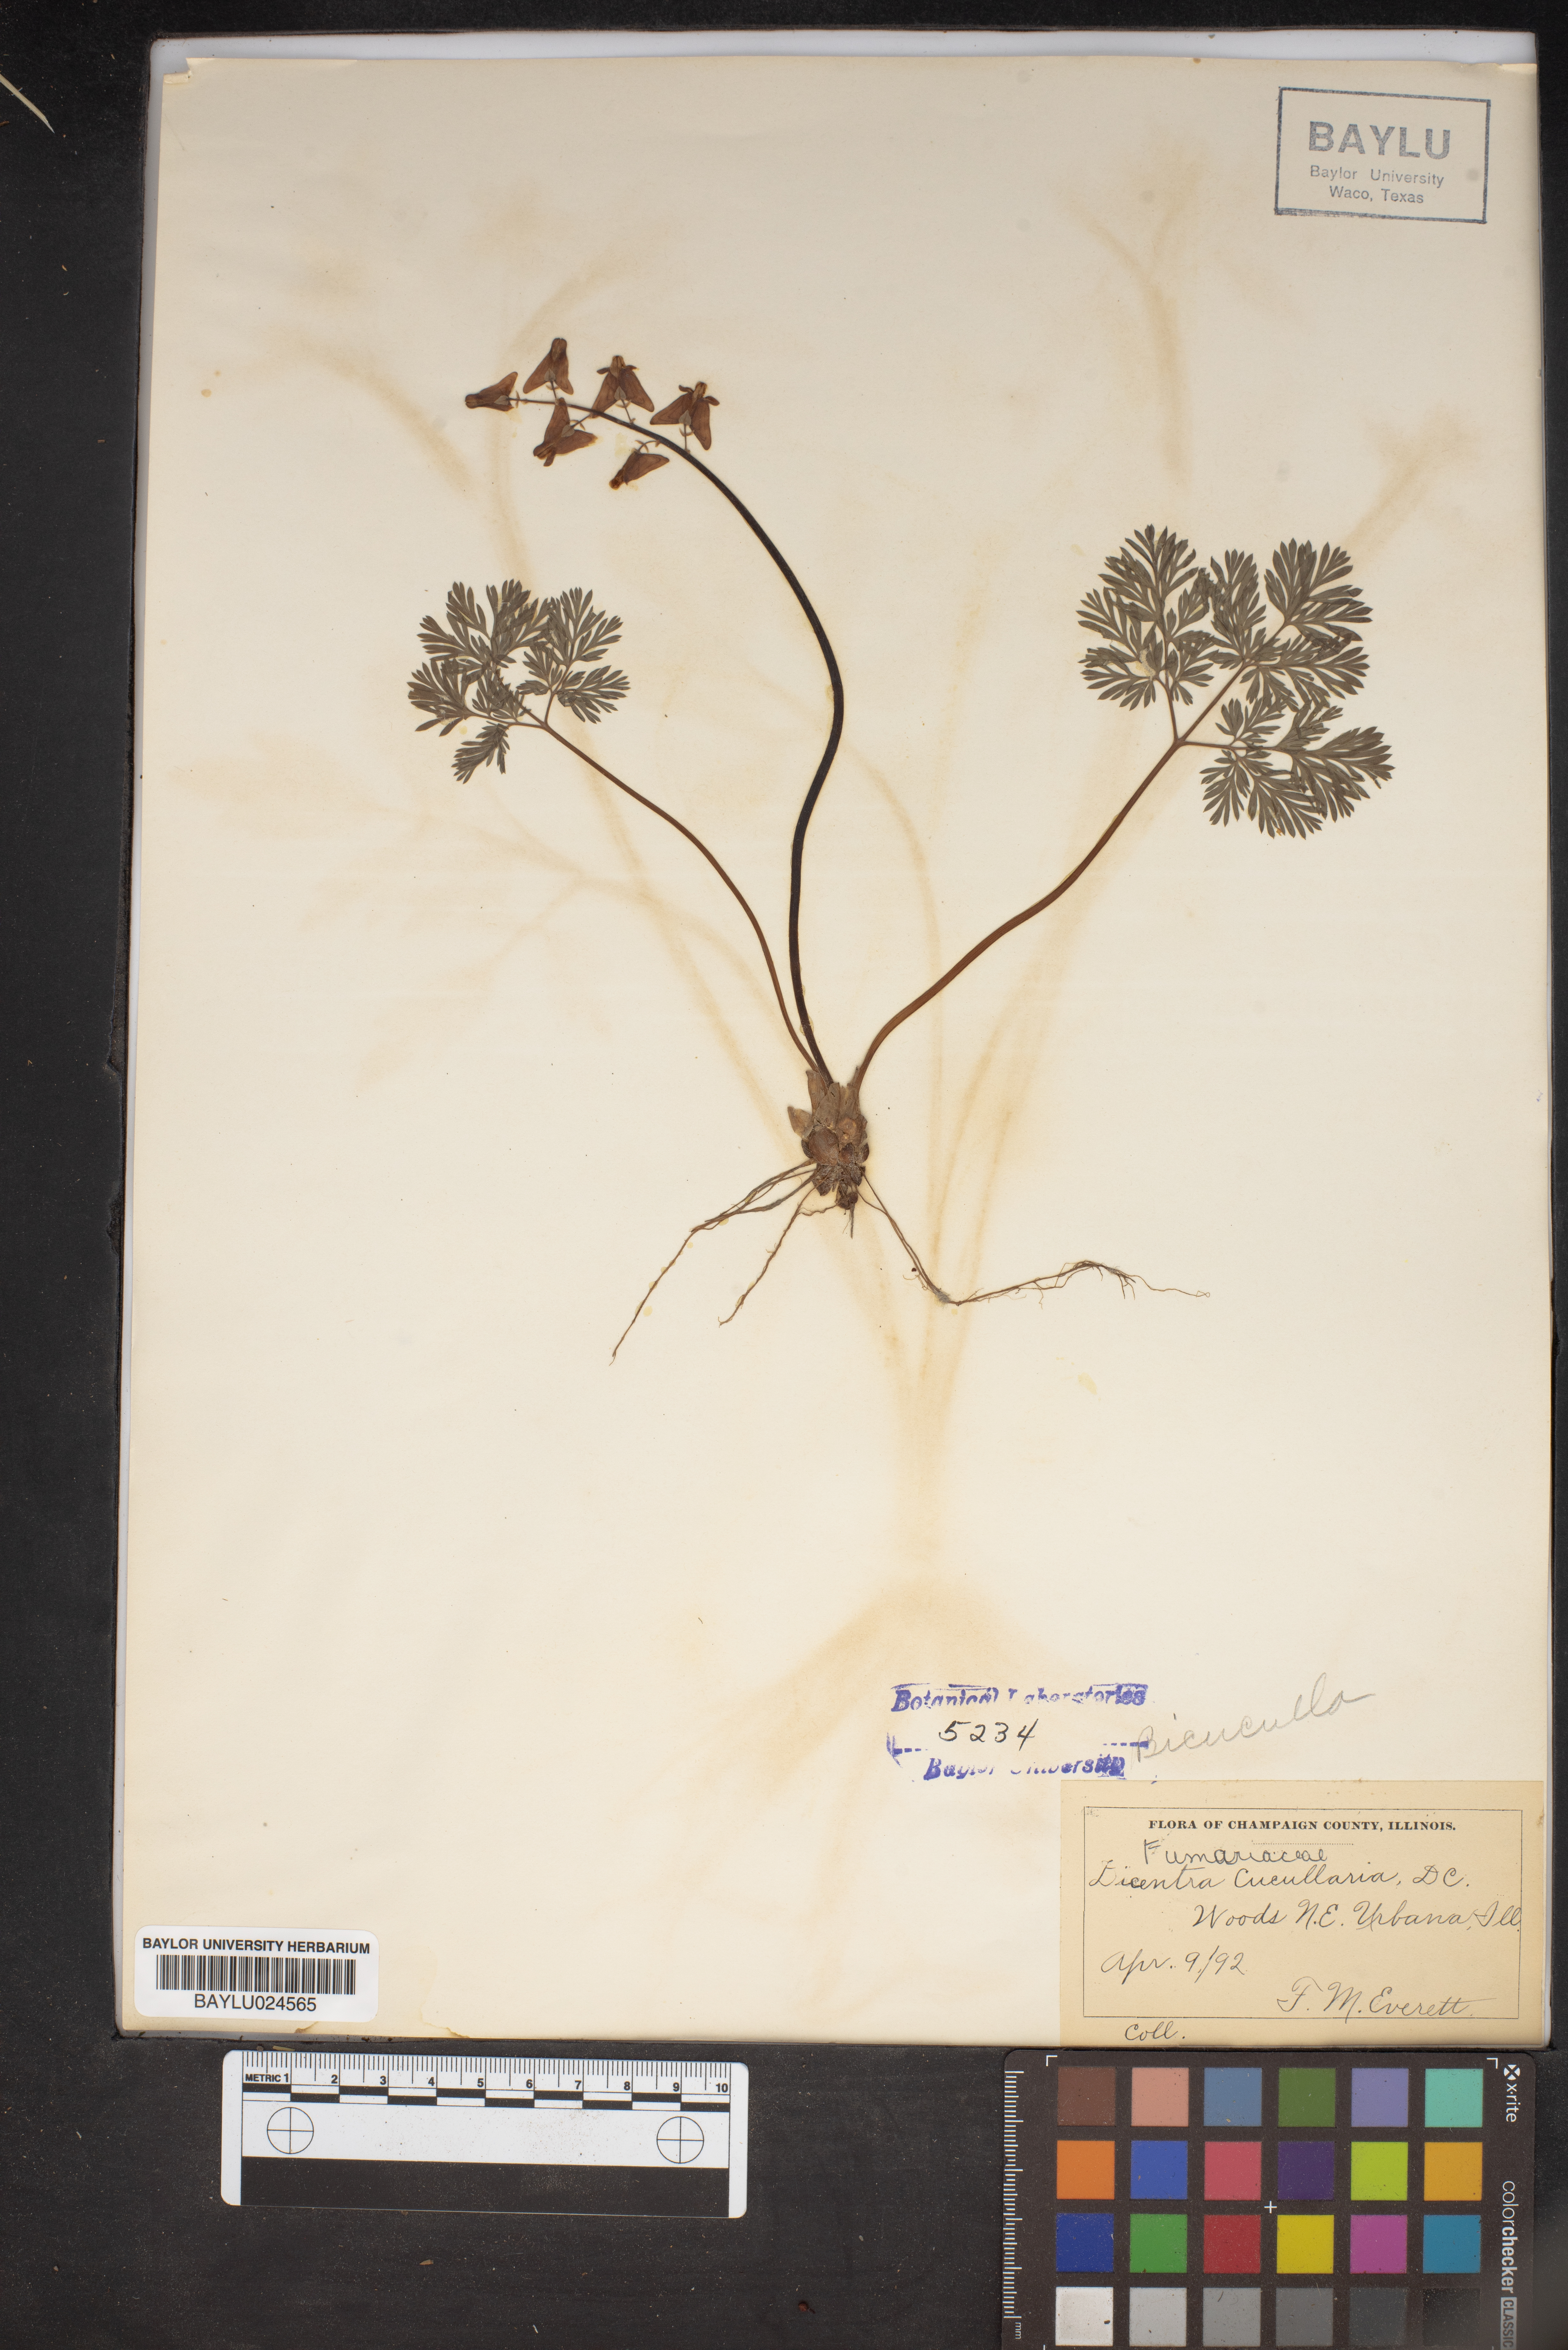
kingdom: Plantae
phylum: Tracheophyta
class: Magnoliopsida
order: Ranunculales
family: Papaveraceae
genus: Dicentra
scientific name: Dicentra cucullaria
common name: Dutchman's breeches
